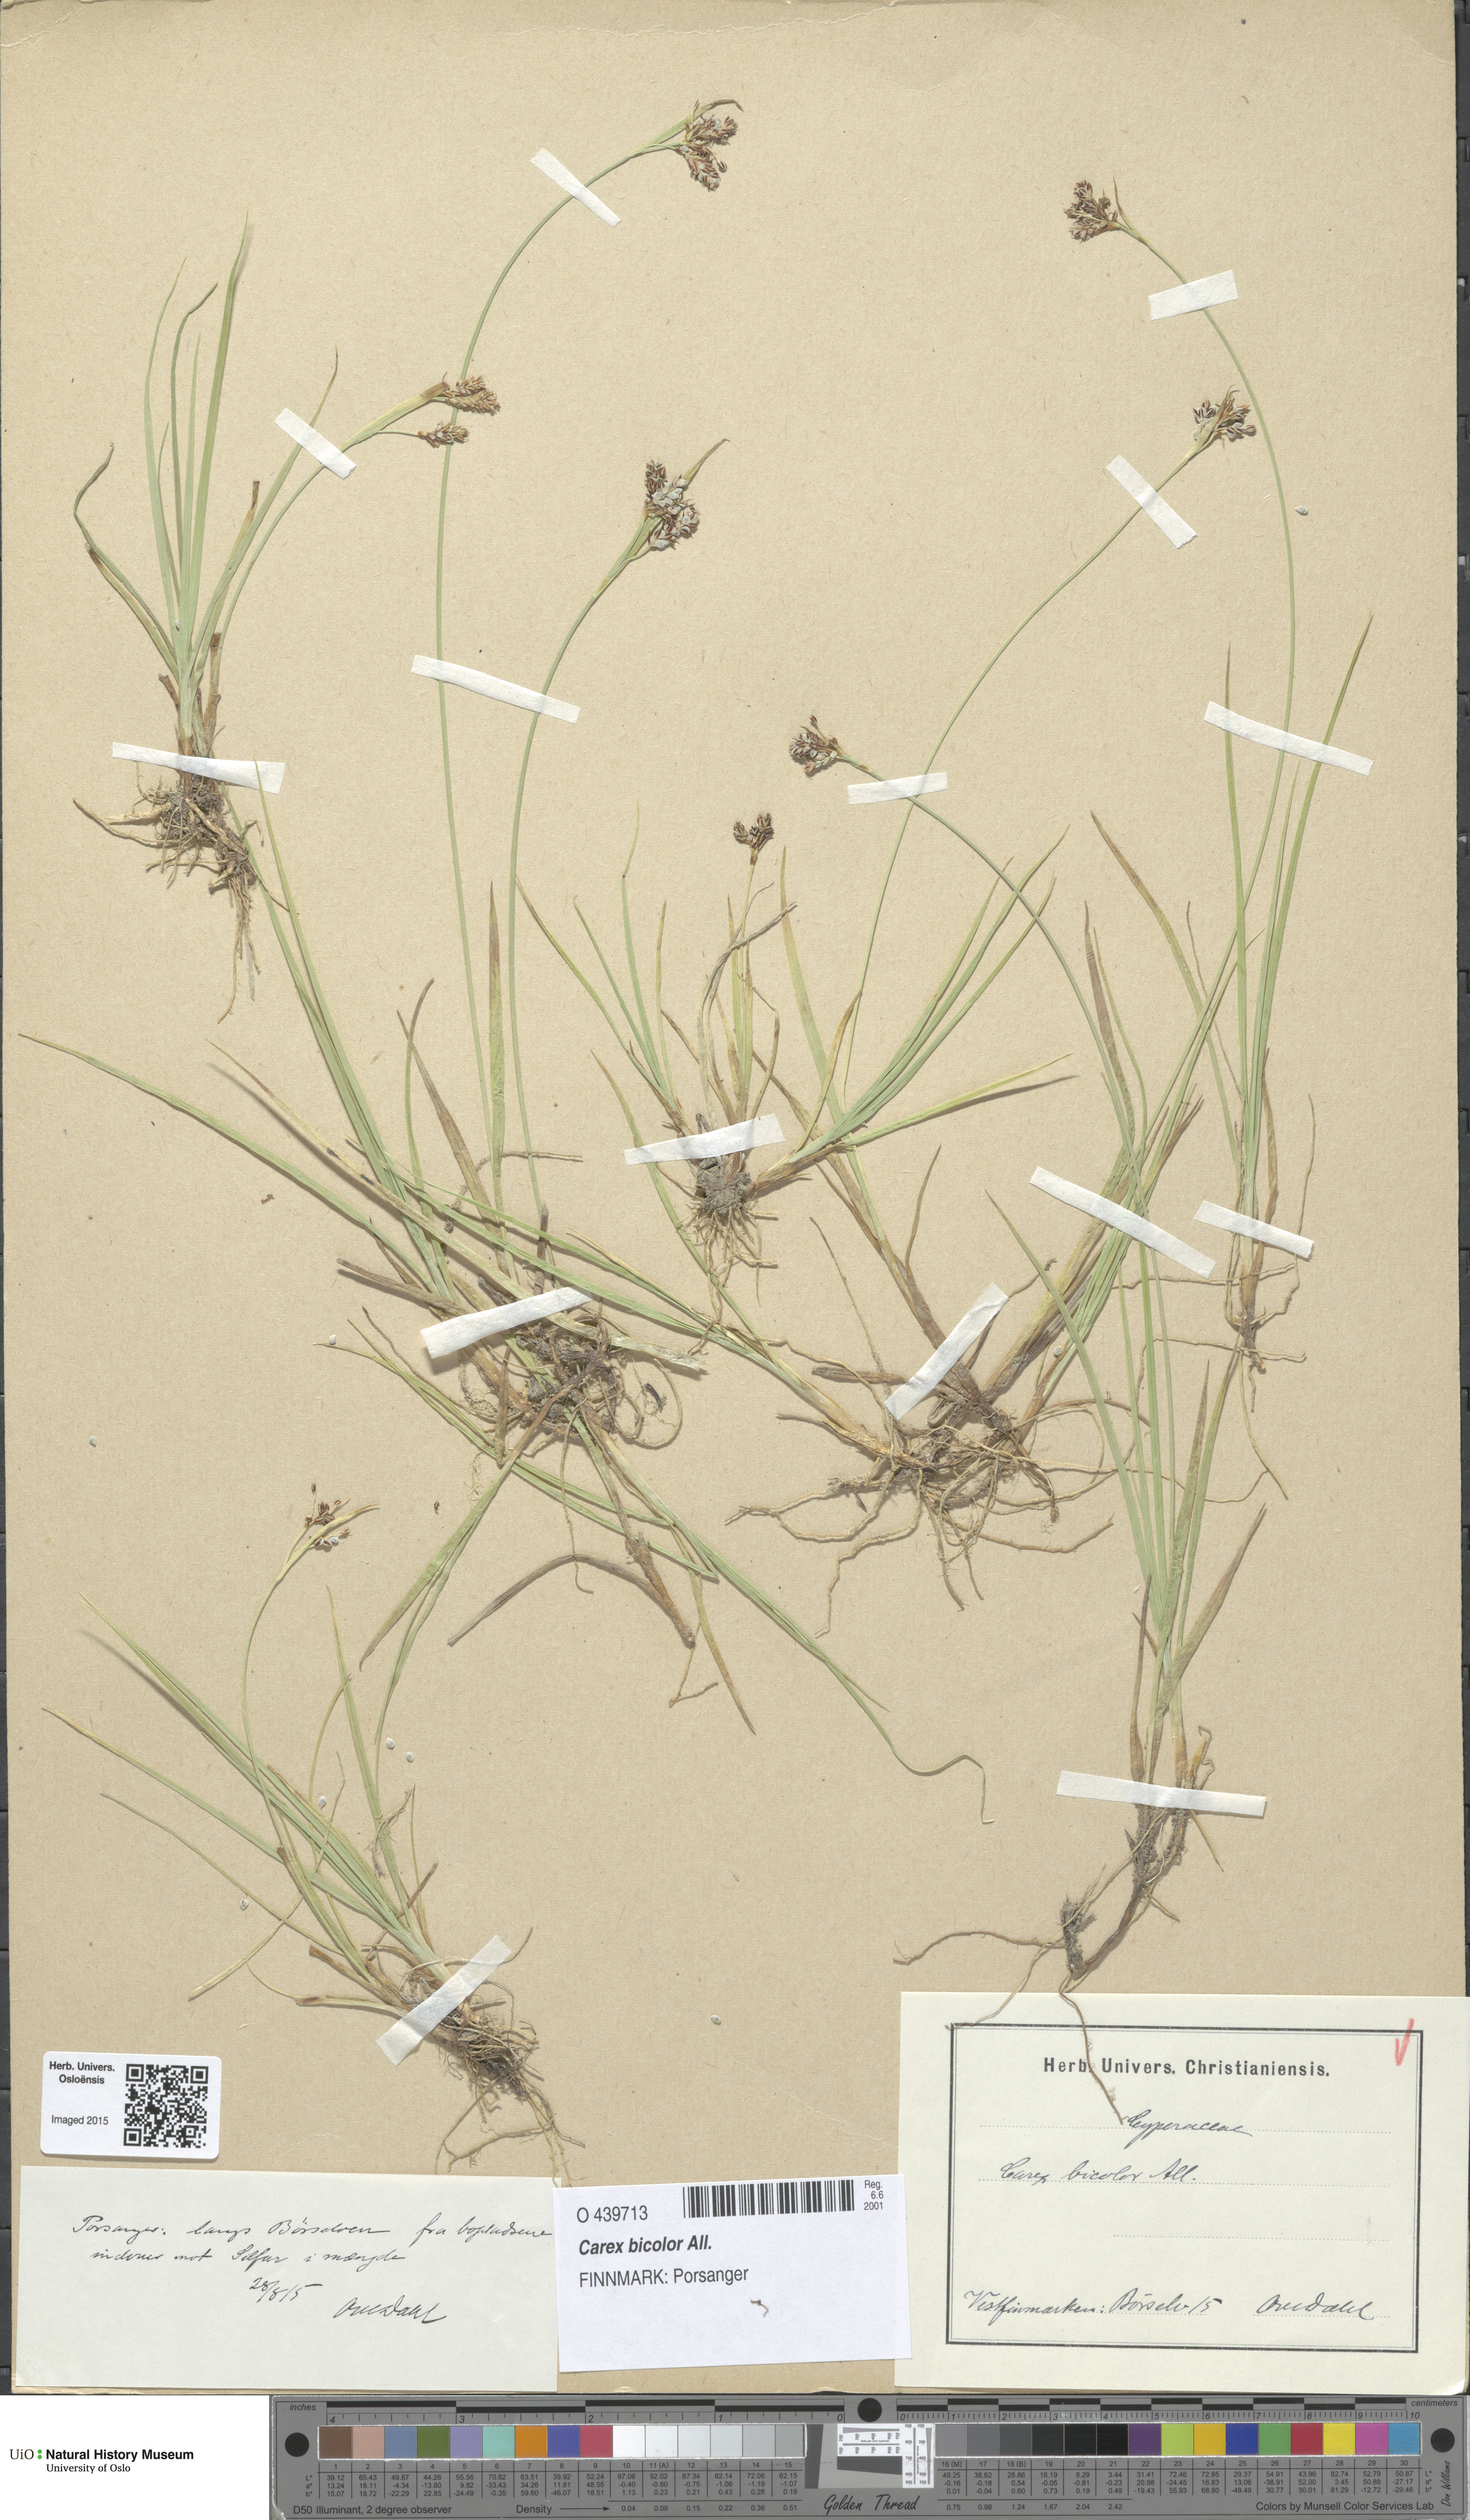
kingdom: Plantae
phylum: Tracheophyta
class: Liliopsida
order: Poales
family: Cyperaceae
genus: Carex
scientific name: Carex bicolor
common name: Bicoloured sedge
